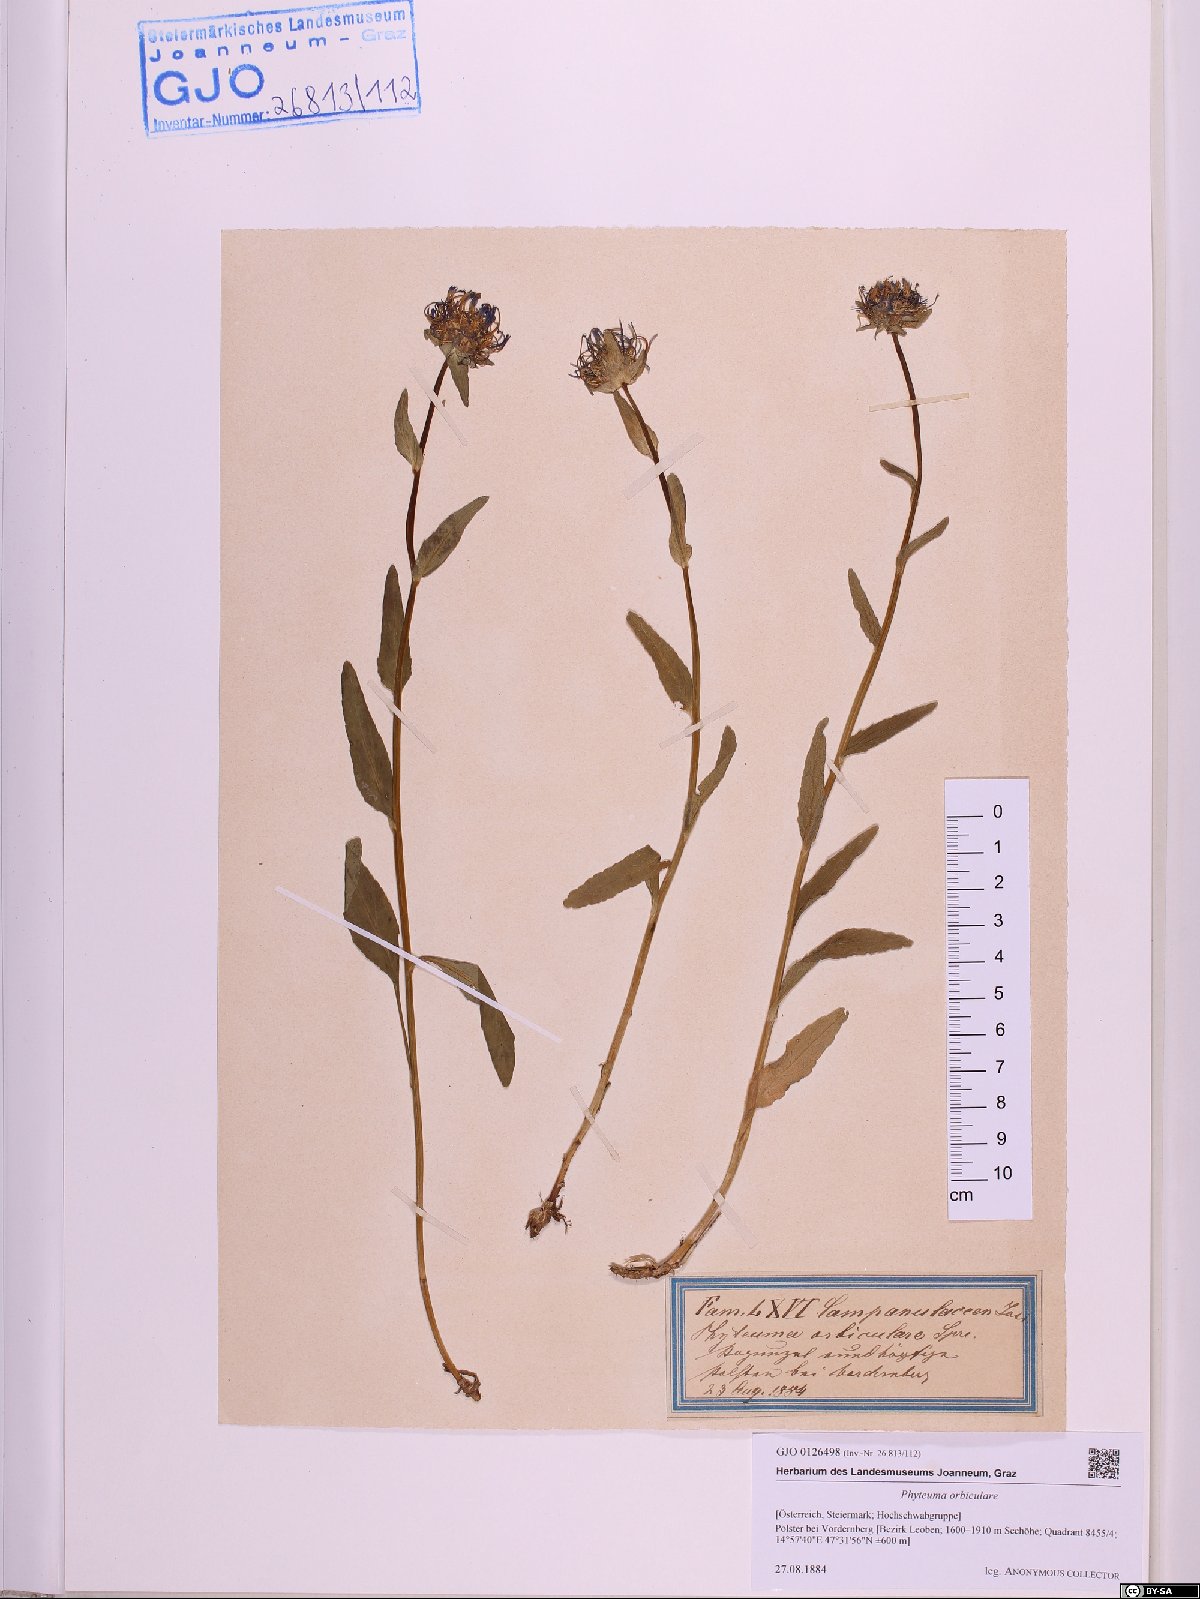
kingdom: Plantae
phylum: Tracheophyta
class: Magnoliopsida
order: Asterales
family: Campanulaceae
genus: Phyteuma
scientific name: Phyteuma orbiculare
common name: Round-headed rampion
